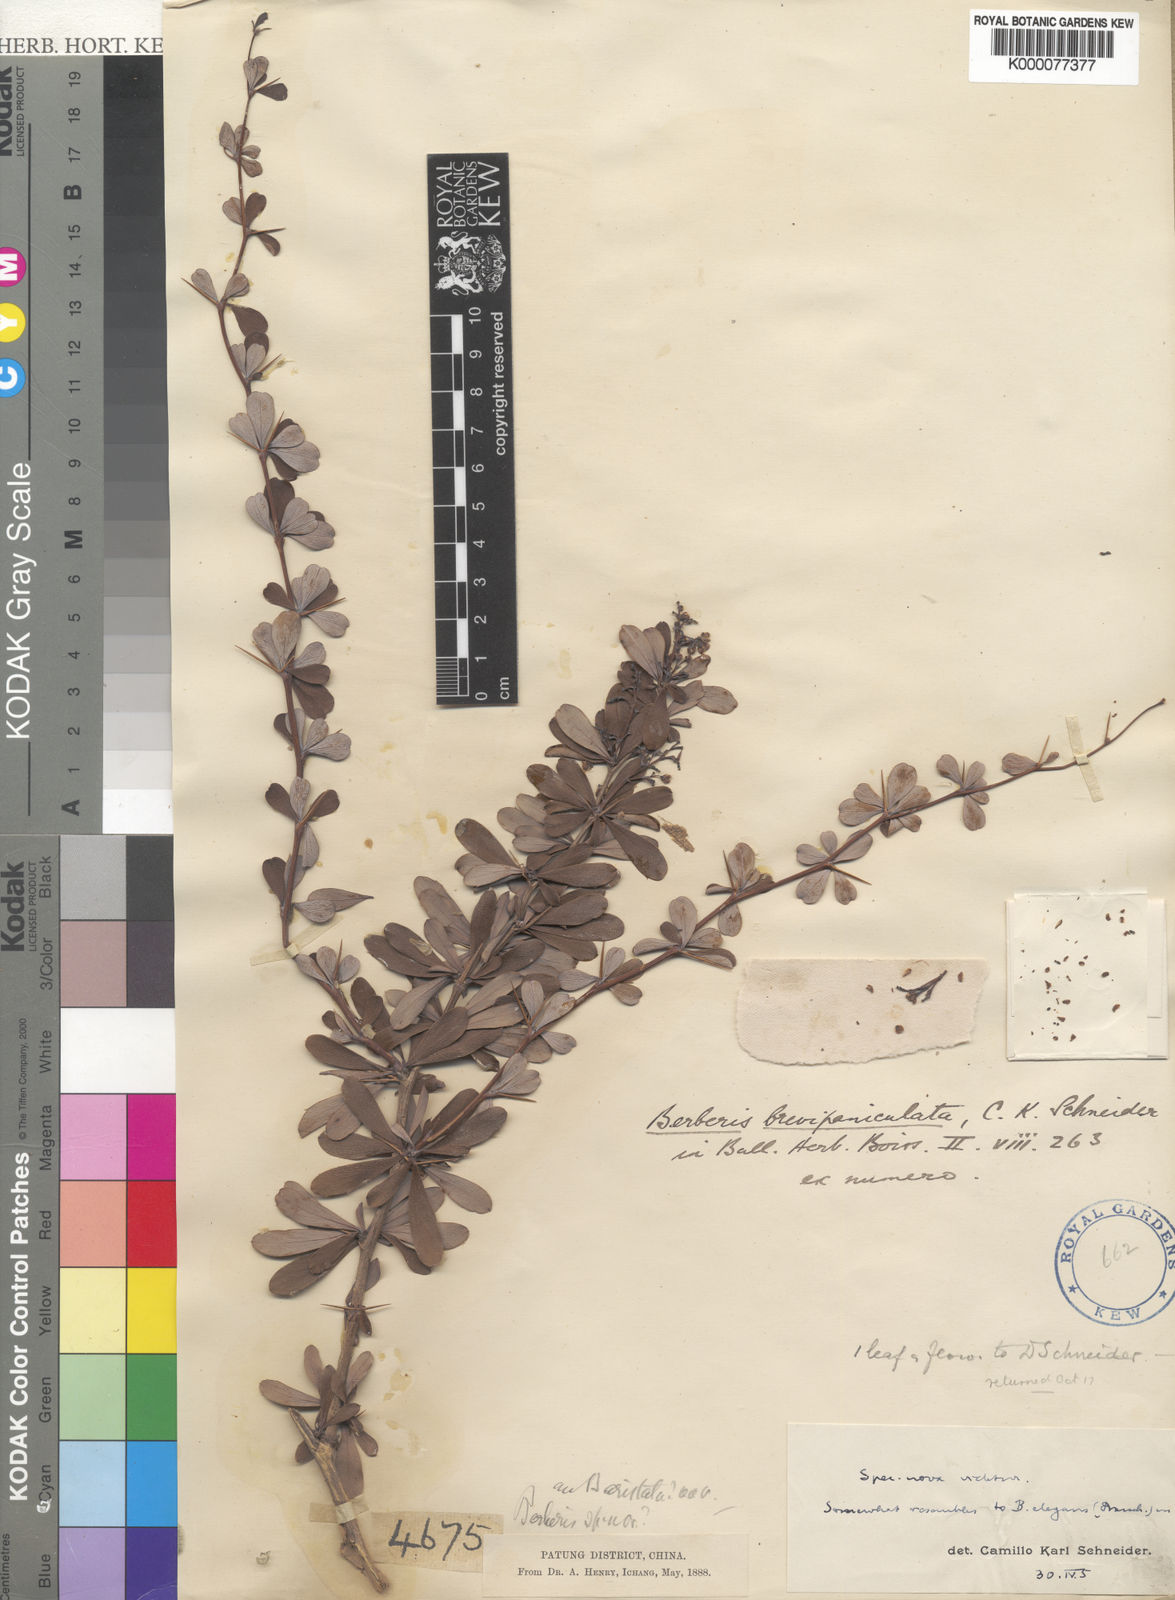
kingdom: Plantae
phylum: Tracheophyta
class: Magnoliopsida
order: Ranunculales
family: Berberidaceae
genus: Berberis
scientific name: Berberis brevipaniculata
